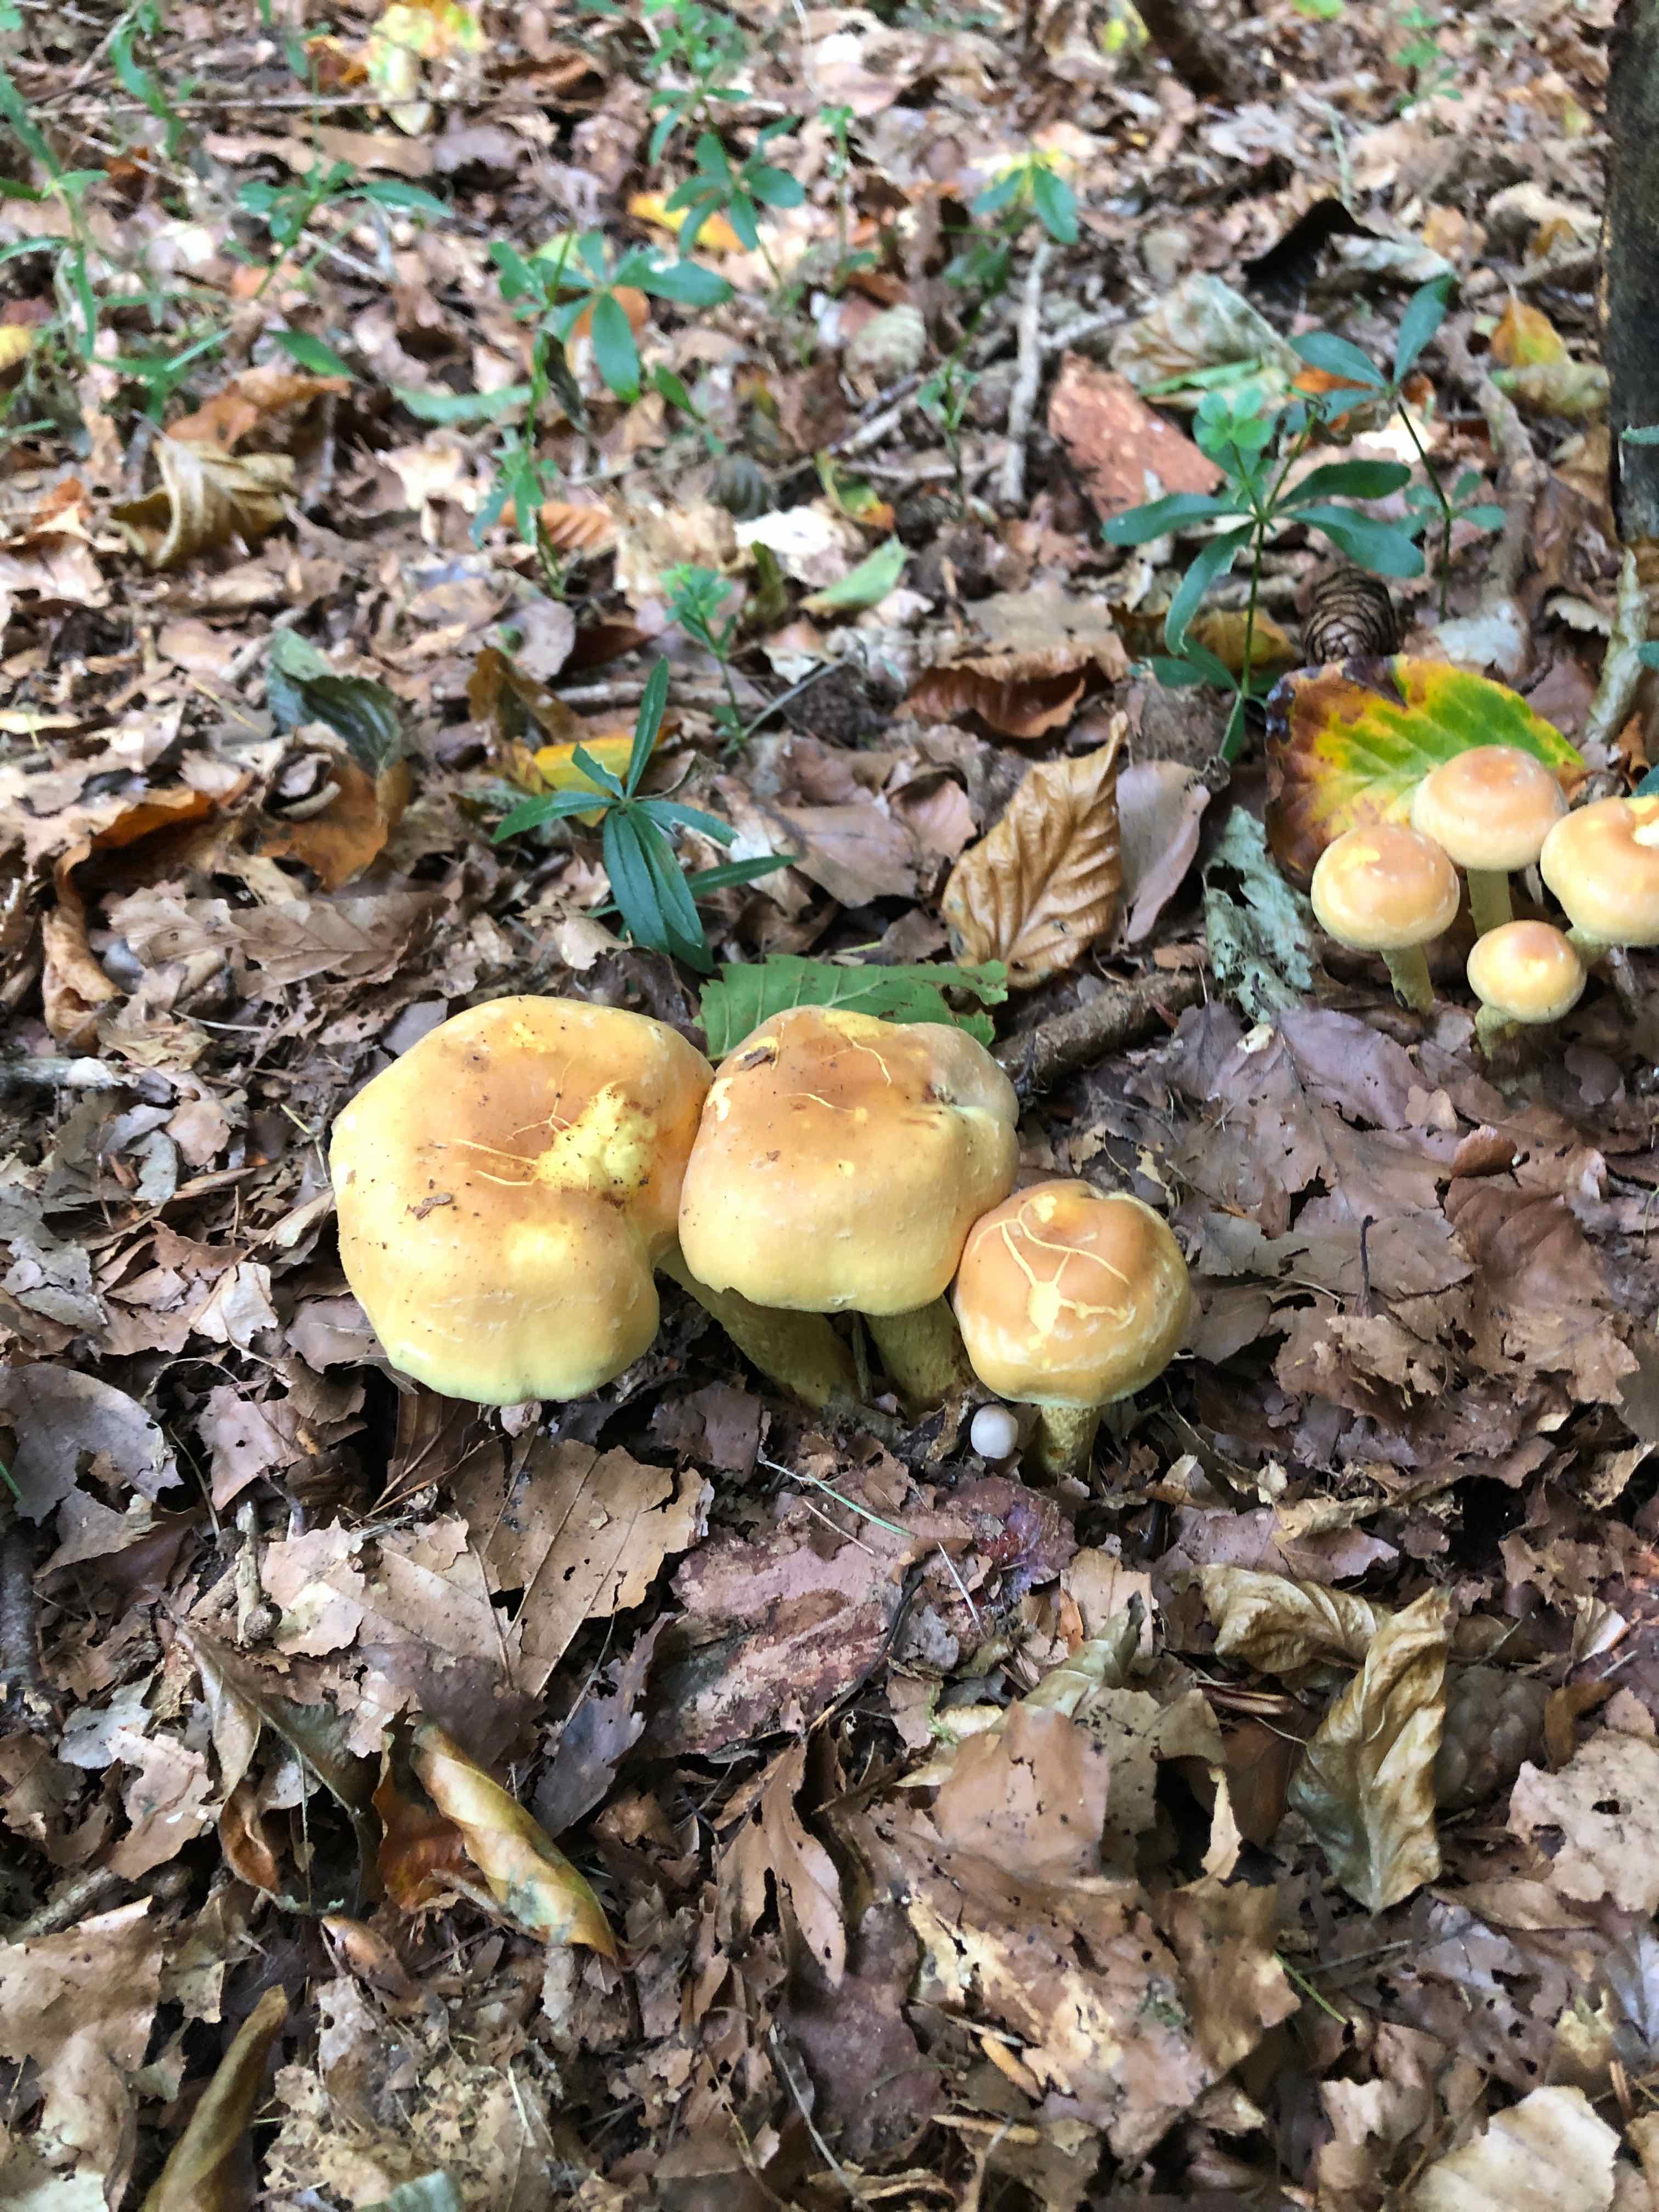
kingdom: Fungi
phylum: Basidiomycota
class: Agaricomycetes
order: Agaricales
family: Strophariaceae
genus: Hypholoma
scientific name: Hypholoma fasciculare
